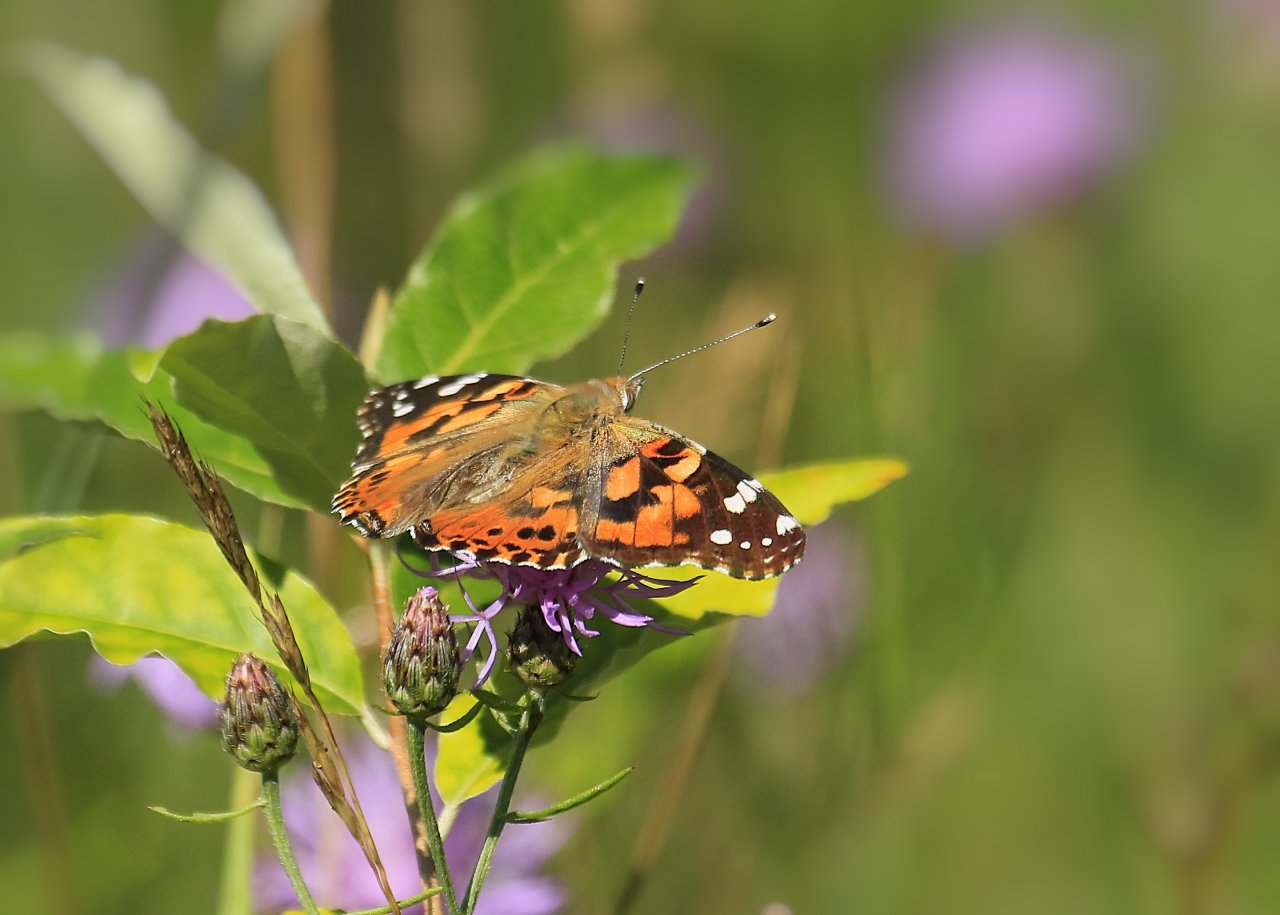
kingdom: Animalia
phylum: Arthropoda
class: Insecta
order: Lepidoptera
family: Nymphalidae
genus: Vanessa
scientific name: Vanessa cardui
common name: Painted Lady
